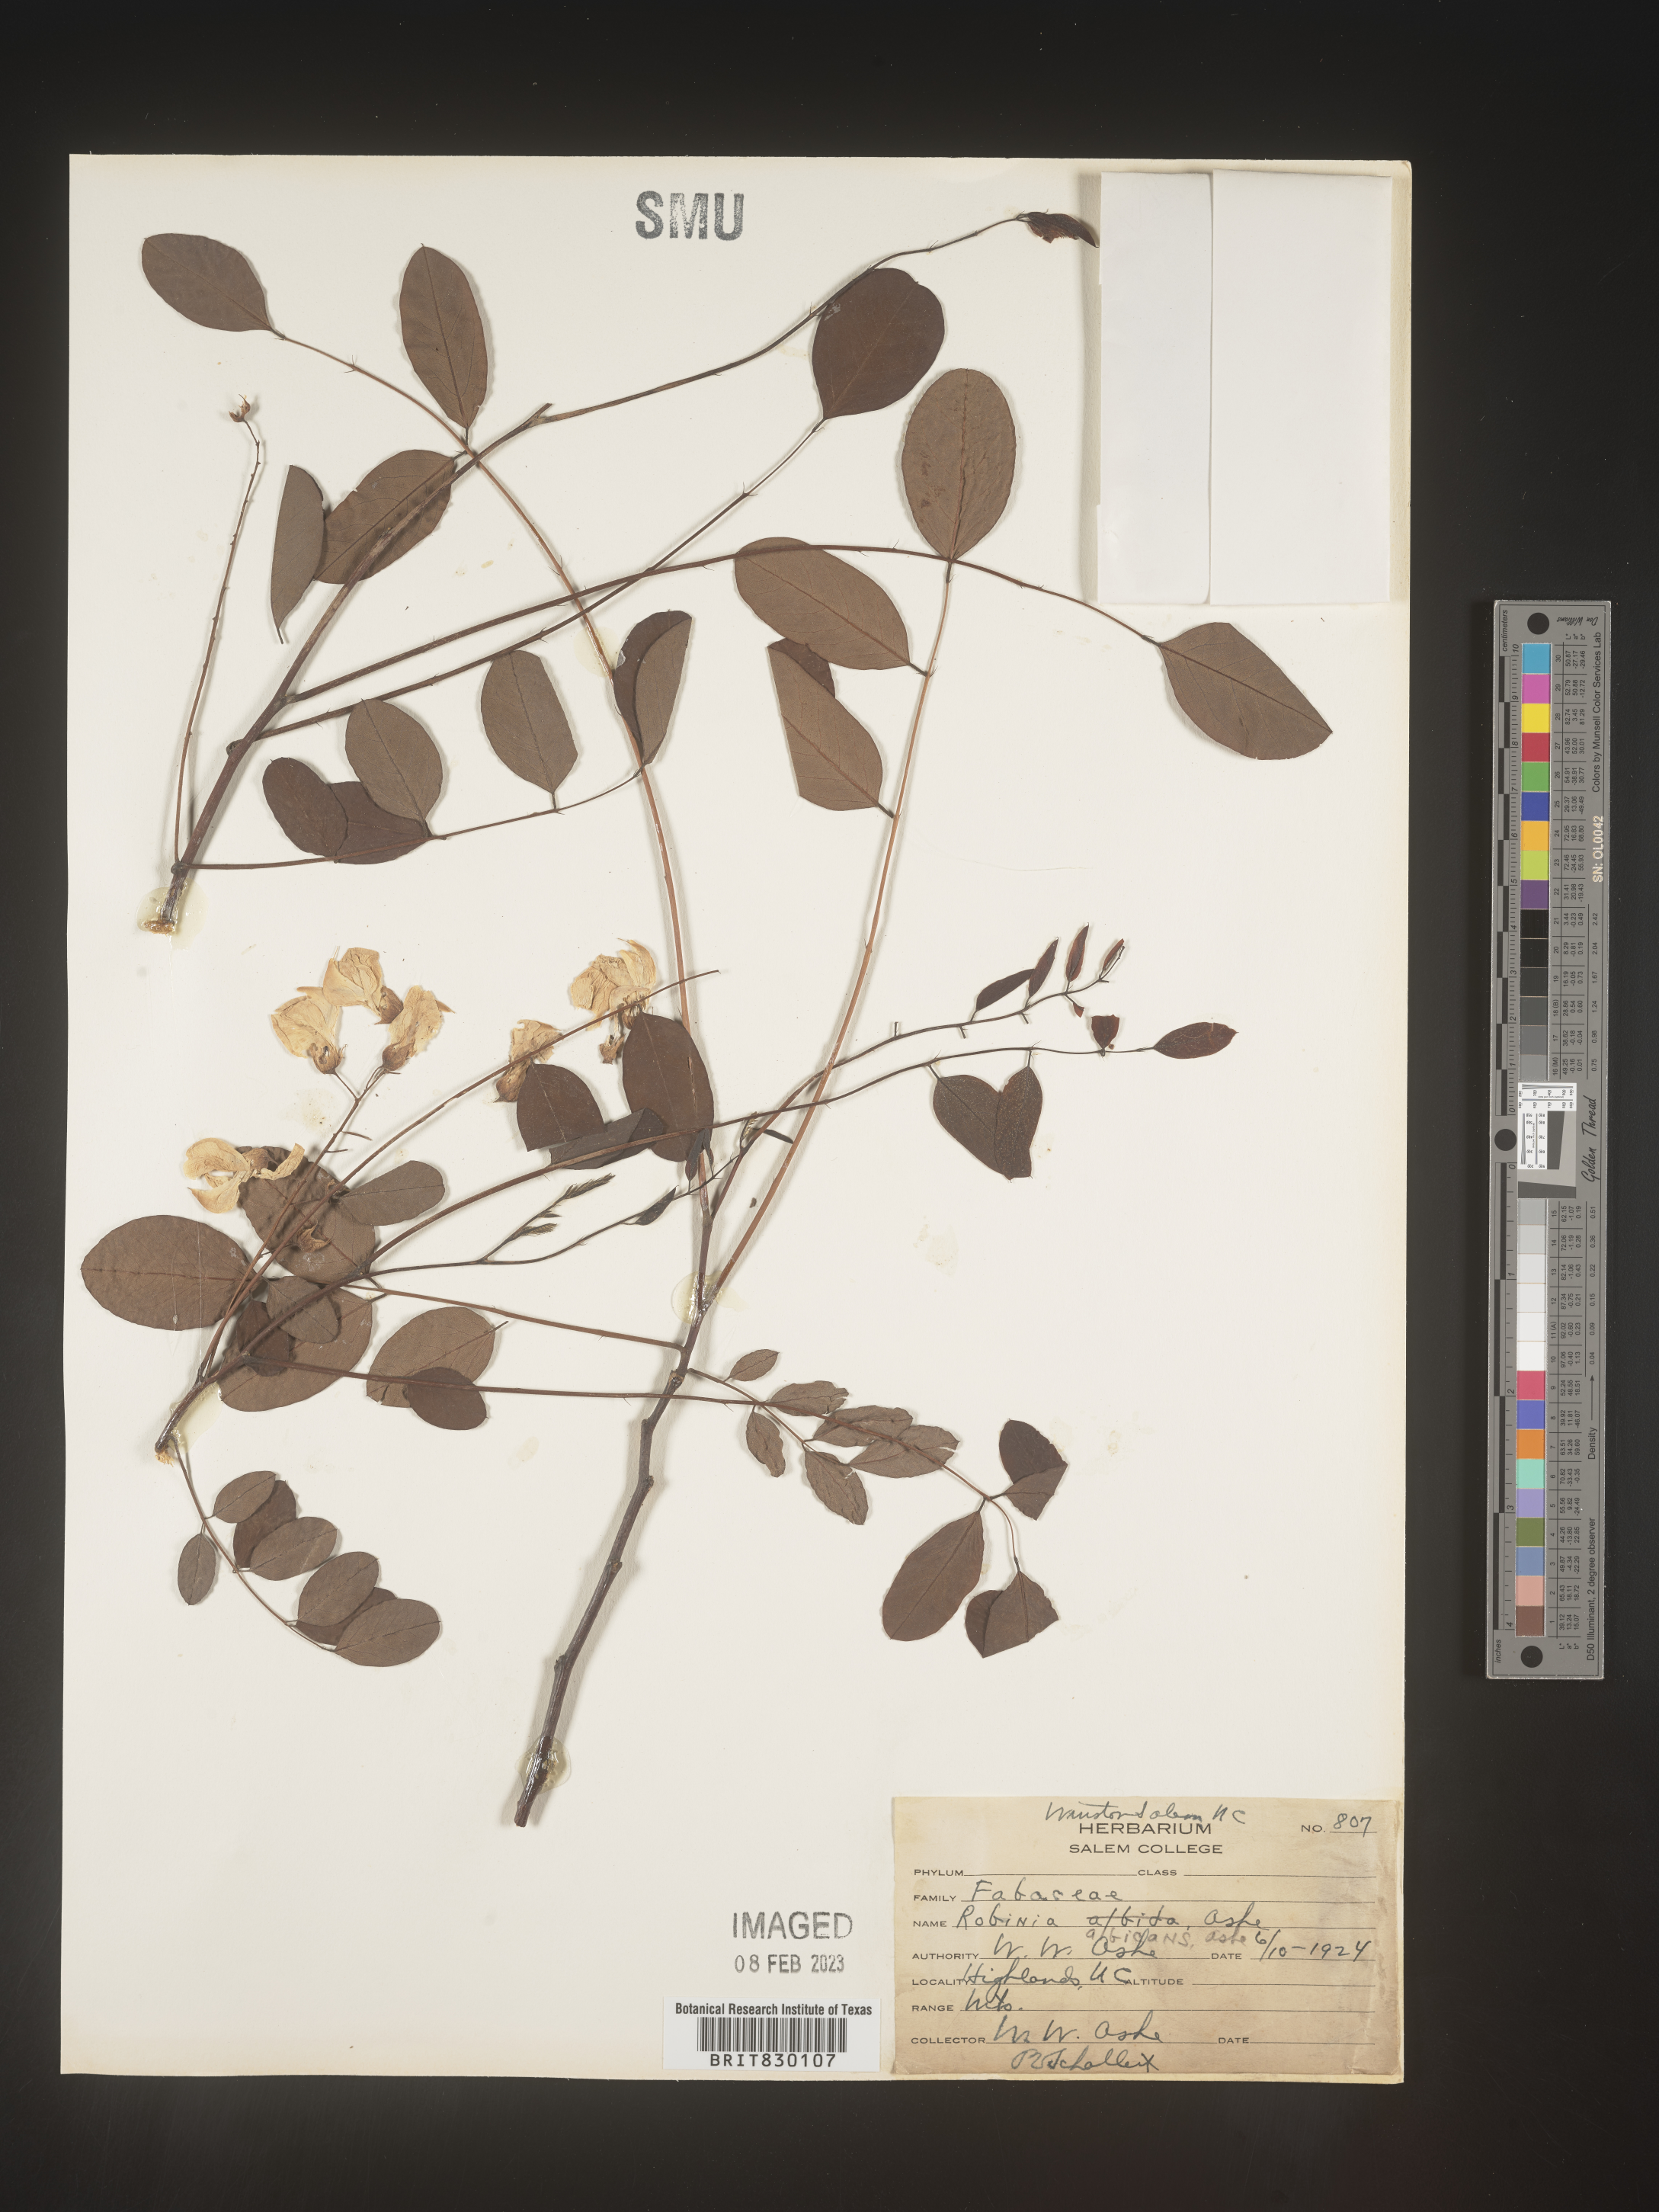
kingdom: Plantae
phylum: Tracheophyta
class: Magnoliopsida
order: Fabales
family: Fabaceae
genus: Robinia
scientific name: Robinia
